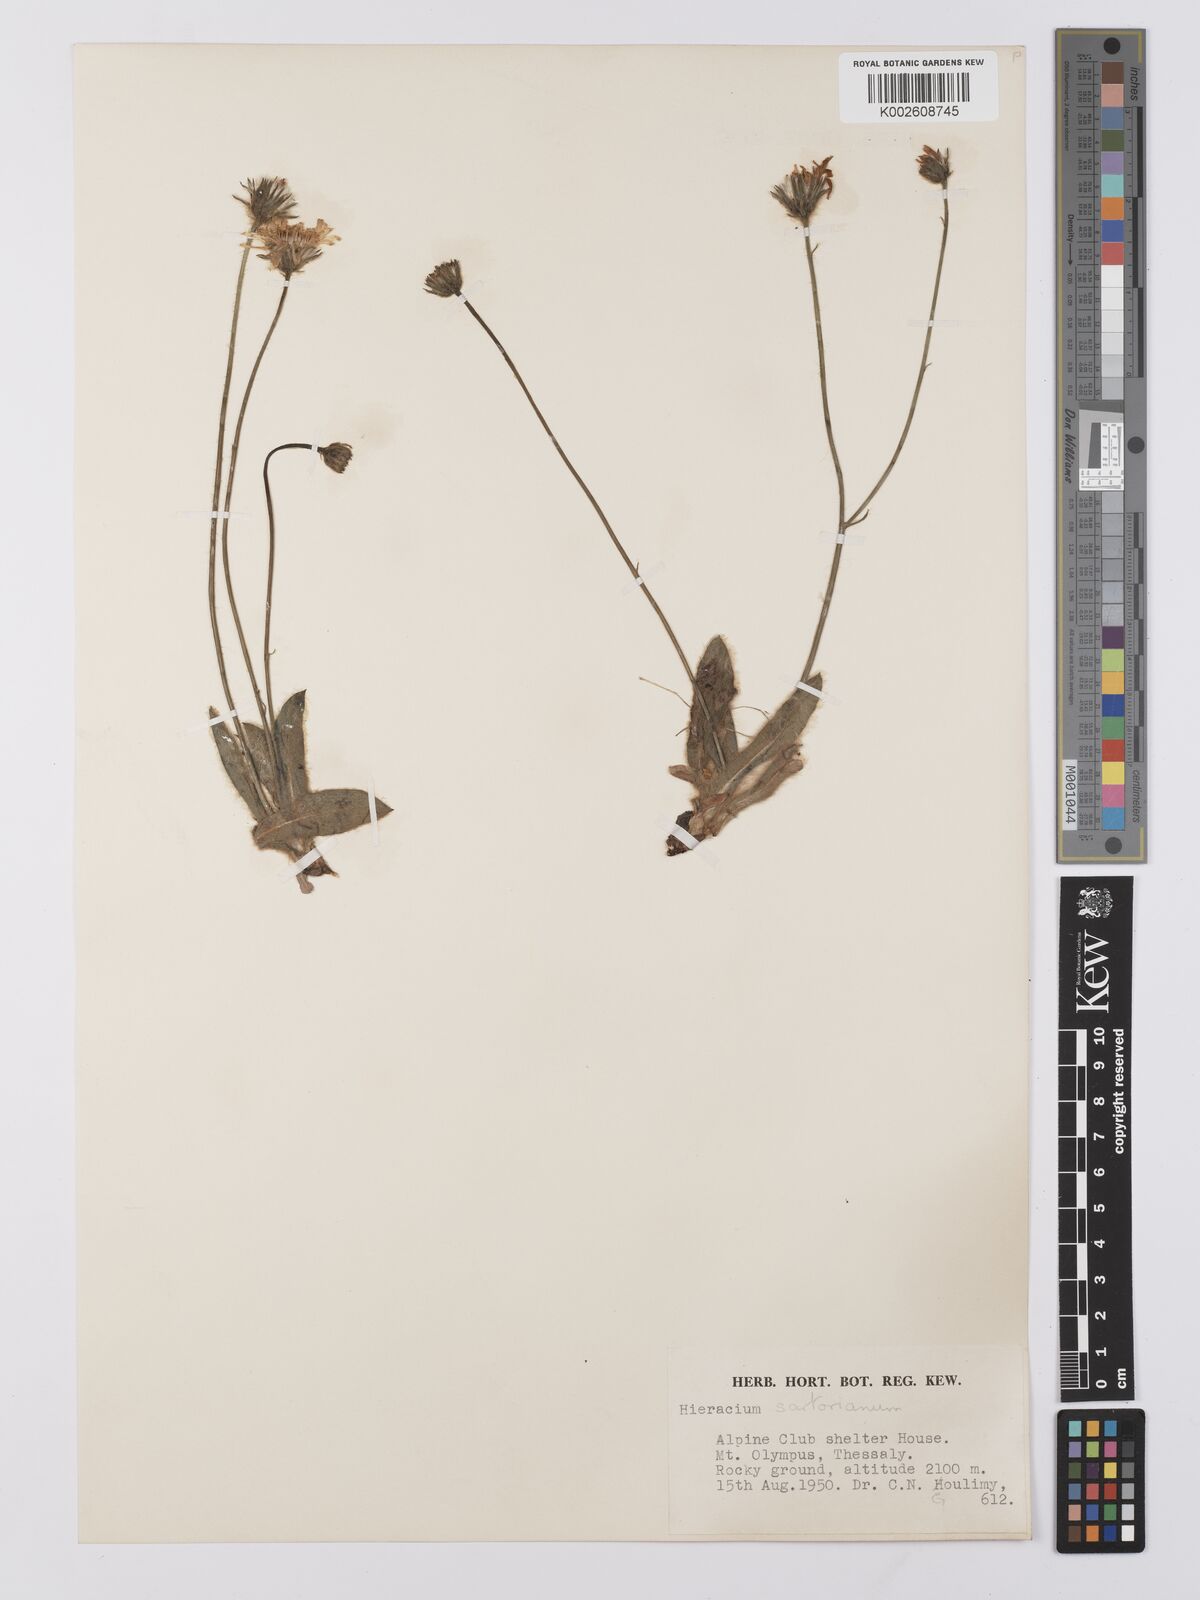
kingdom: Plantae
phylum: Tracheophyta
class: Magnoliopsida
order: Asterales
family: Asteraceae
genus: Hieracium
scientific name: Hieracium sartorianum
